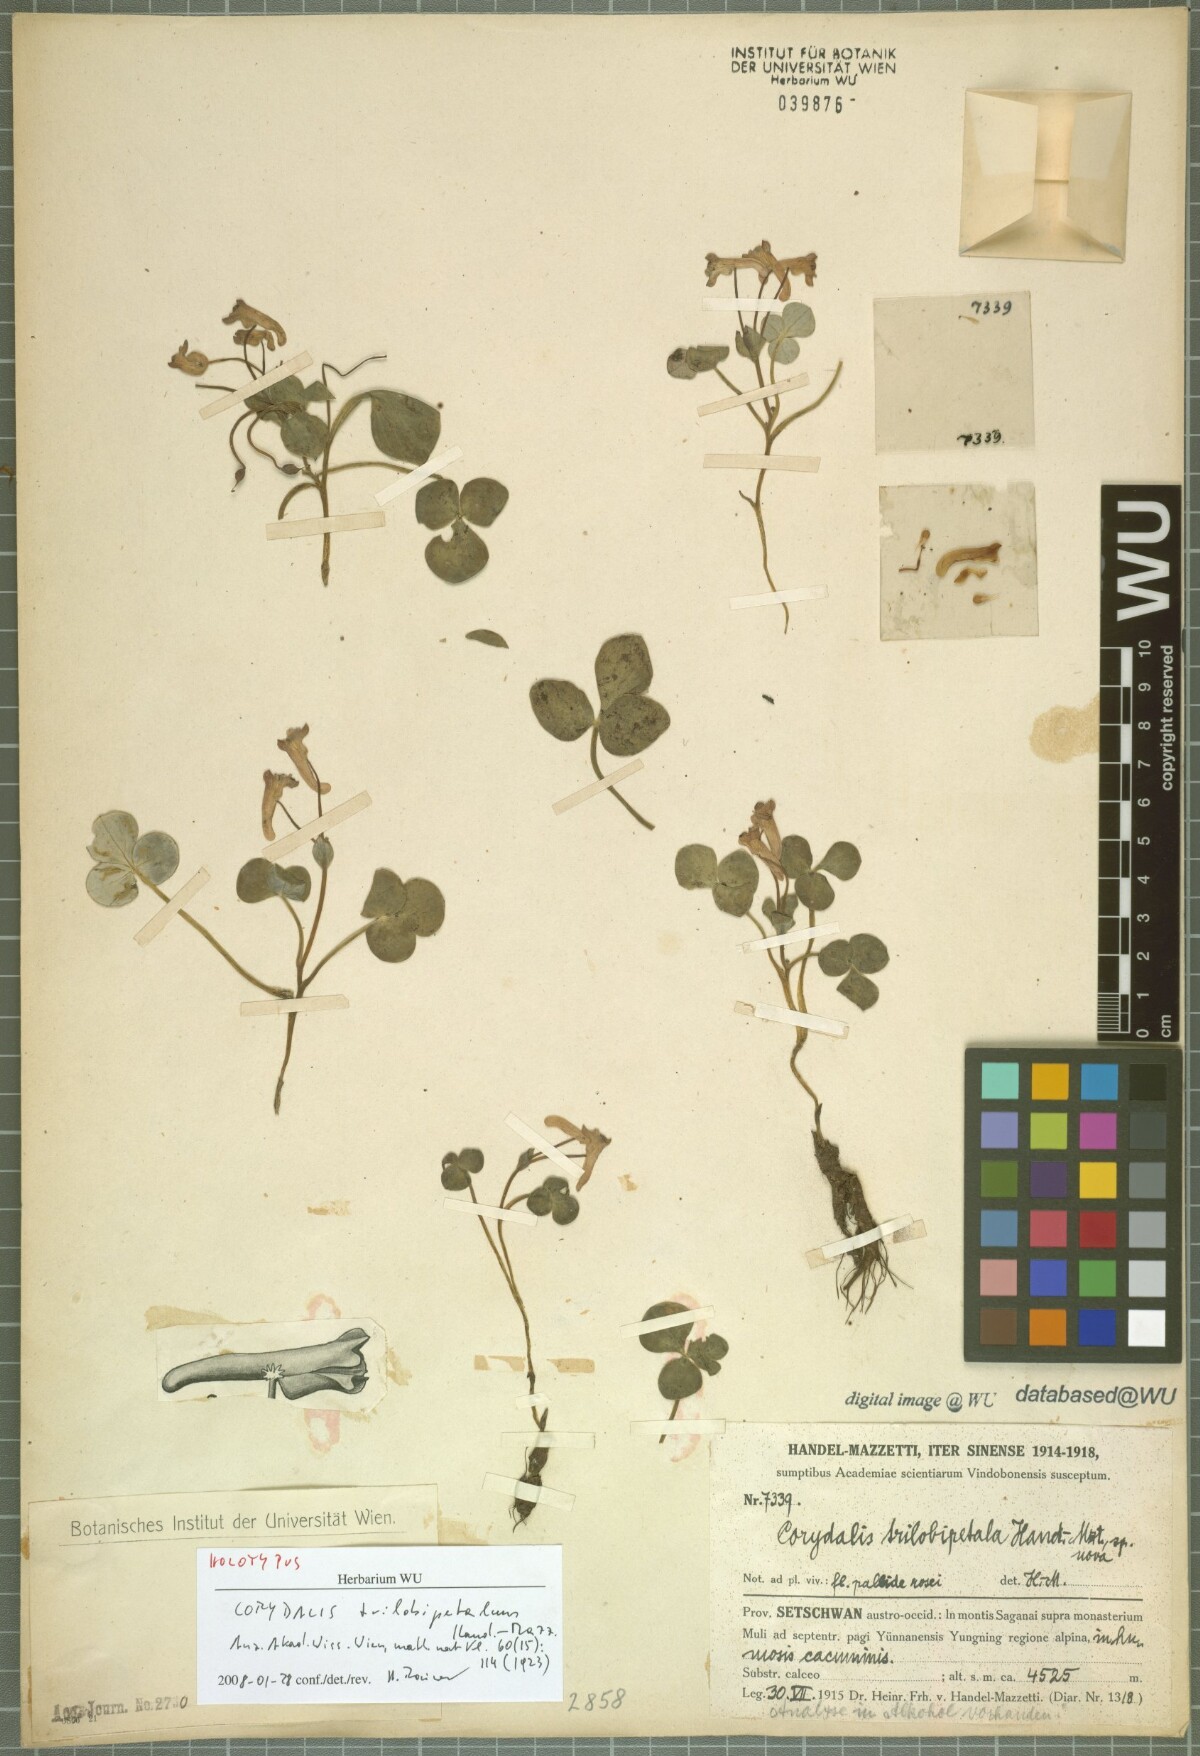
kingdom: Plantae
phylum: Tracheophyta
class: Magnoliopsida
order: Ranunculales
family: Papaveraceae
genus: Corydalis
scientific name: Corydalis trilobipetala
